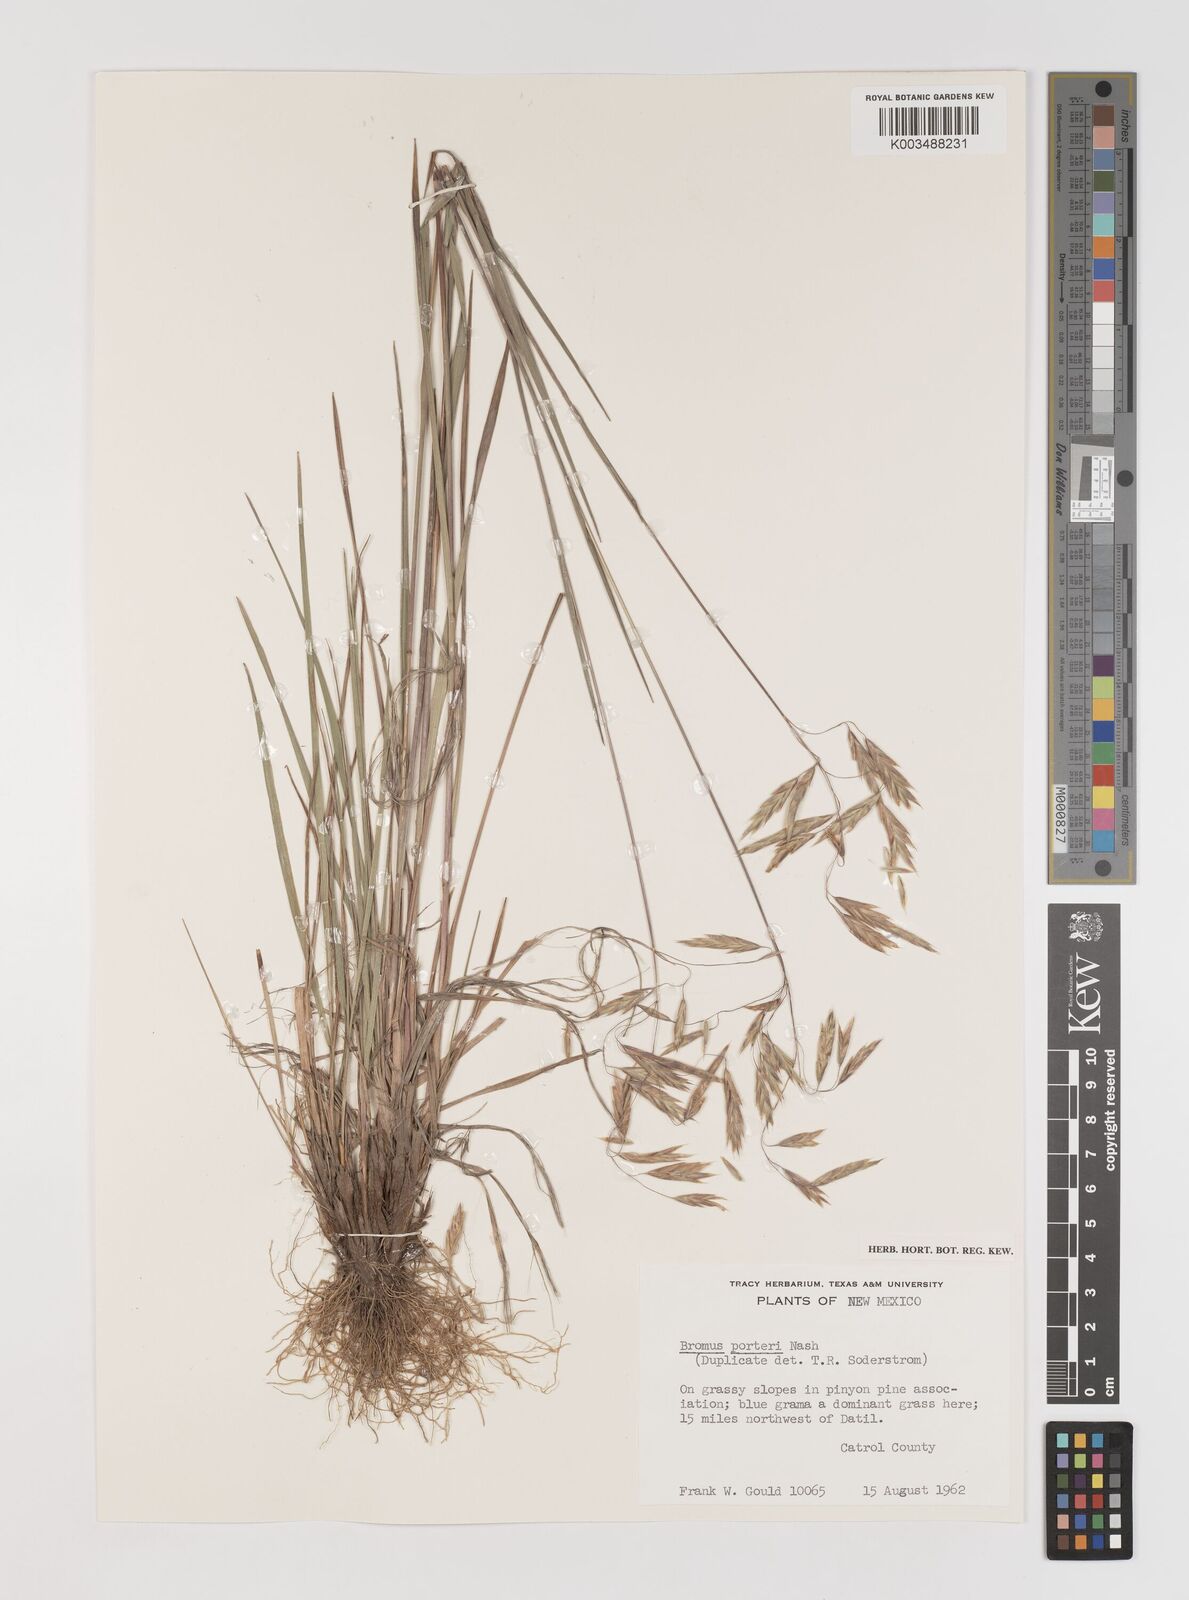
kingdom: Plantae
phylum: Tracheophyta
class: Liliopsida
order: Poales
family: Poaceae
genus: Bromus
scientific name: Bromus porteri
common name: Nodding brome
